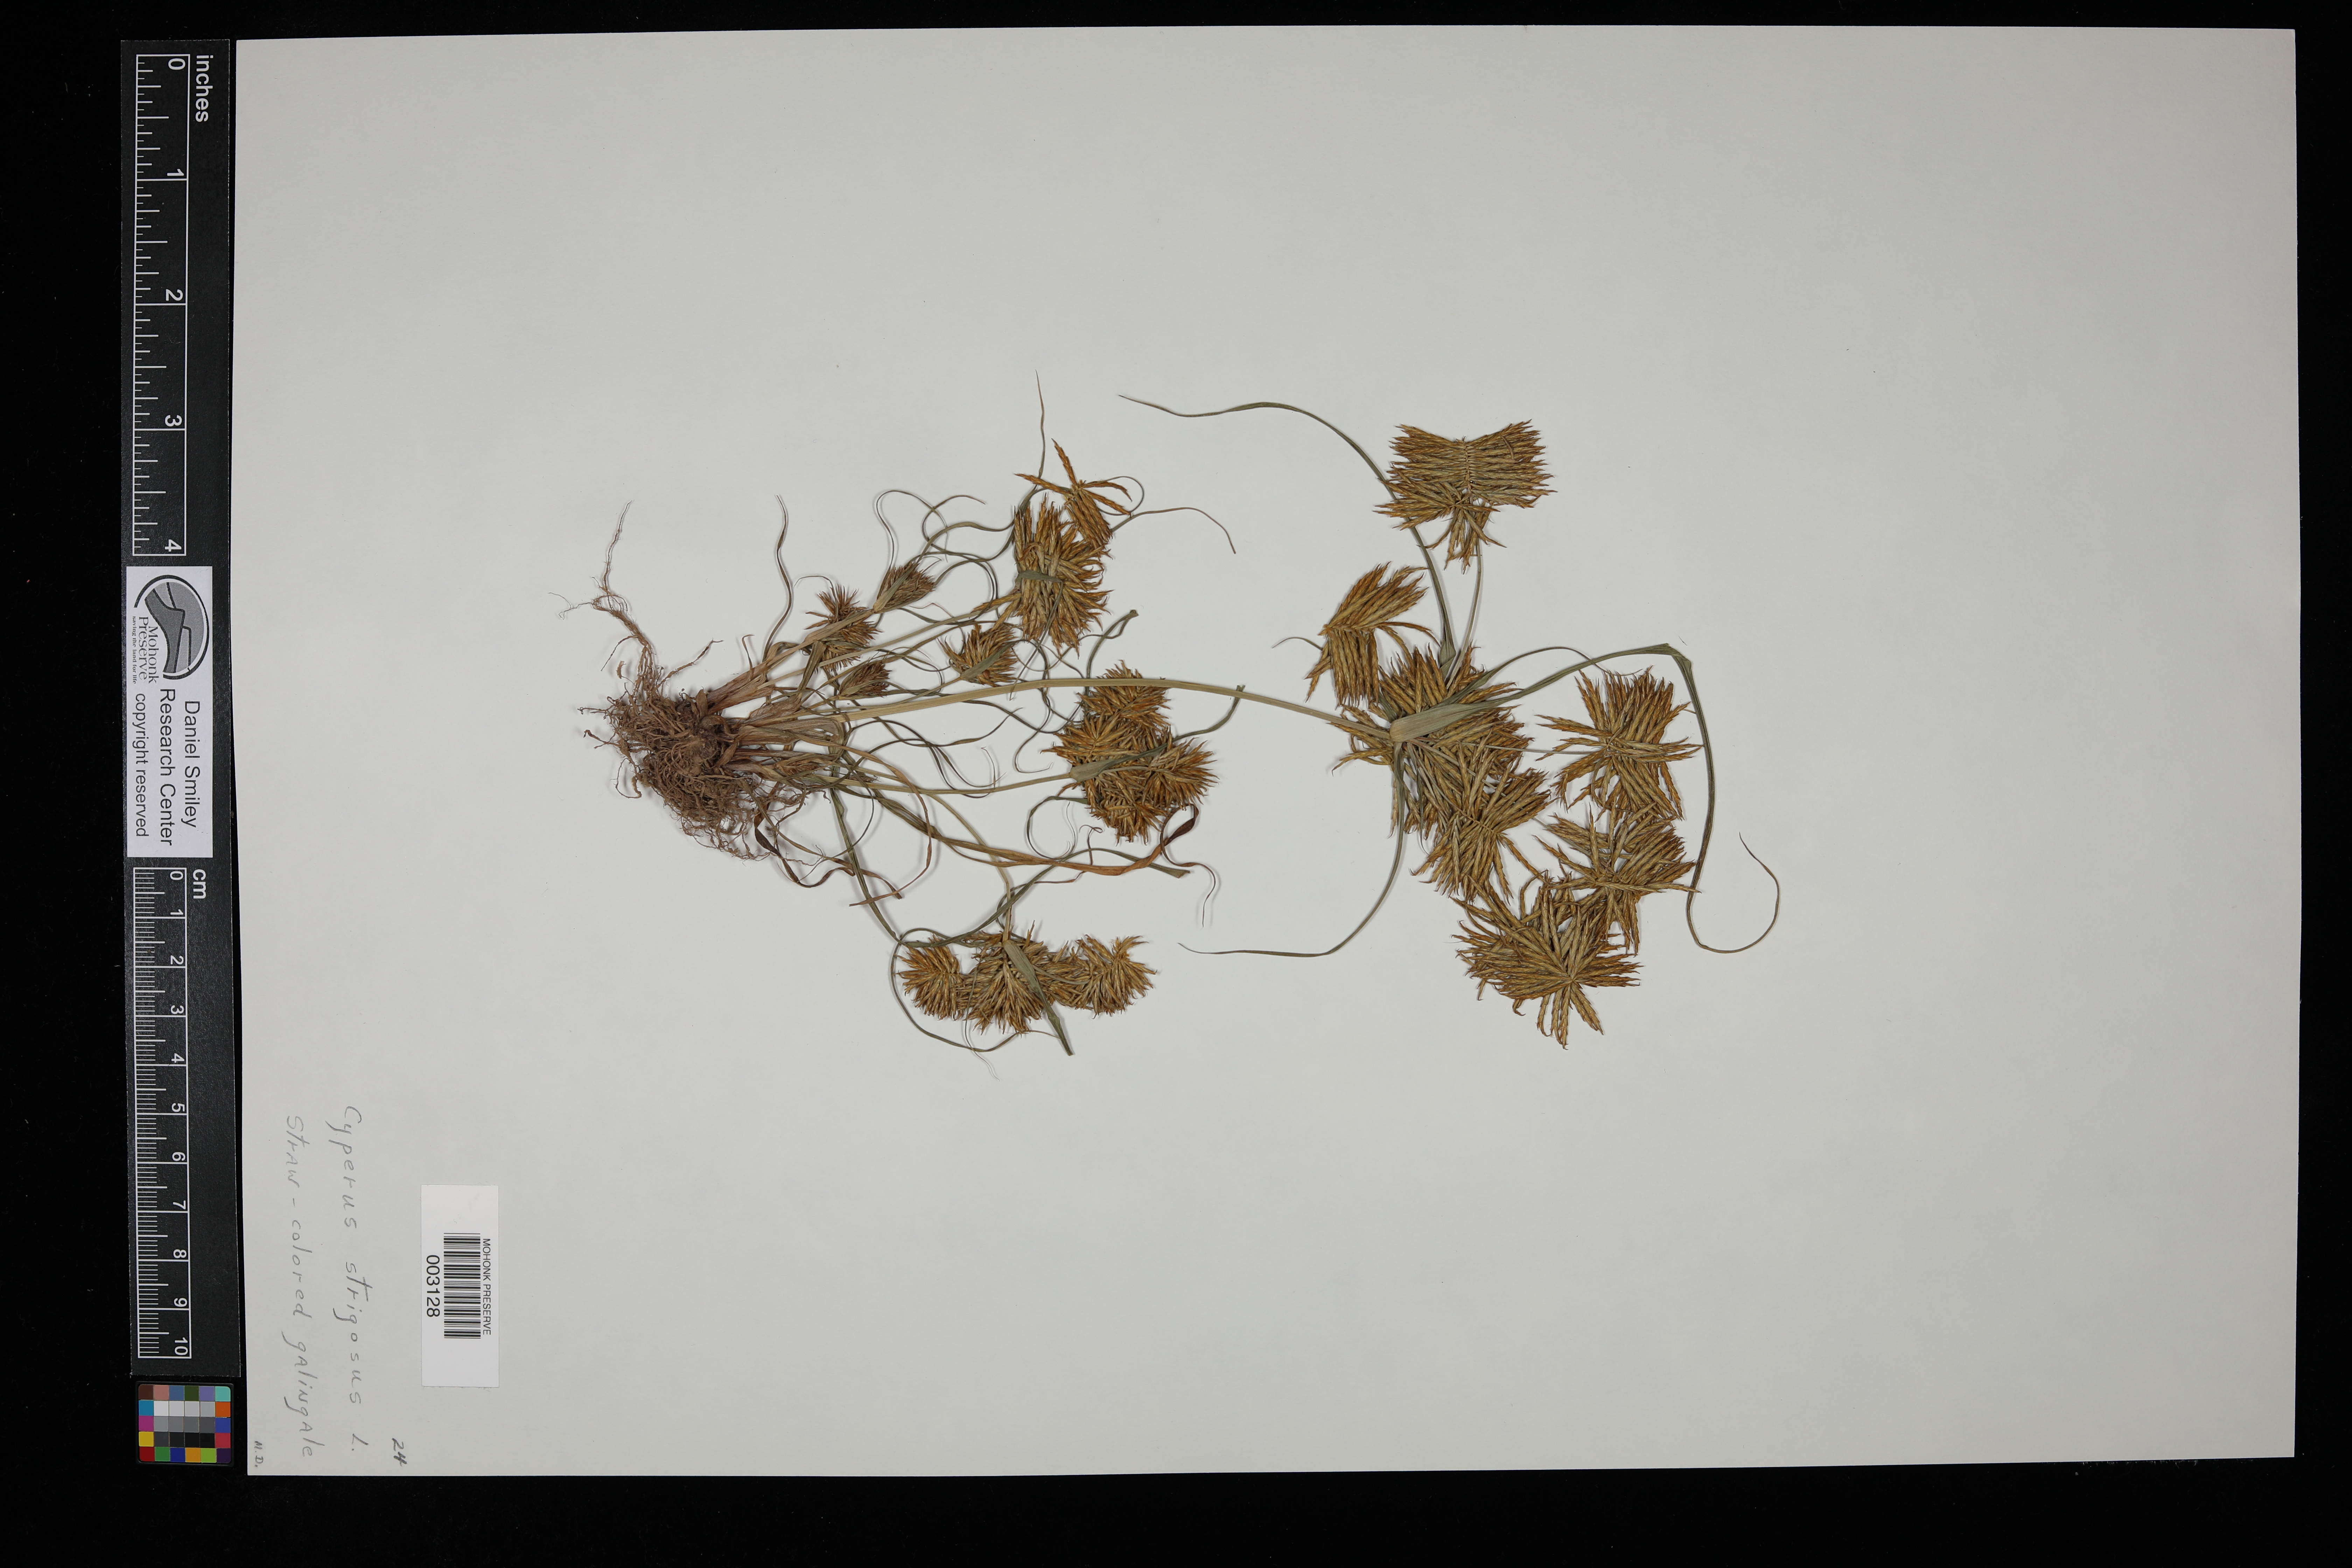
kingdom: Plantae
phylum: Tracheophyta
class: Liliopsida
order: Poales
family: Cyperaceae
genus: Cyperus
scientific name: Cyperus strigosus
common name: False nutsedge
